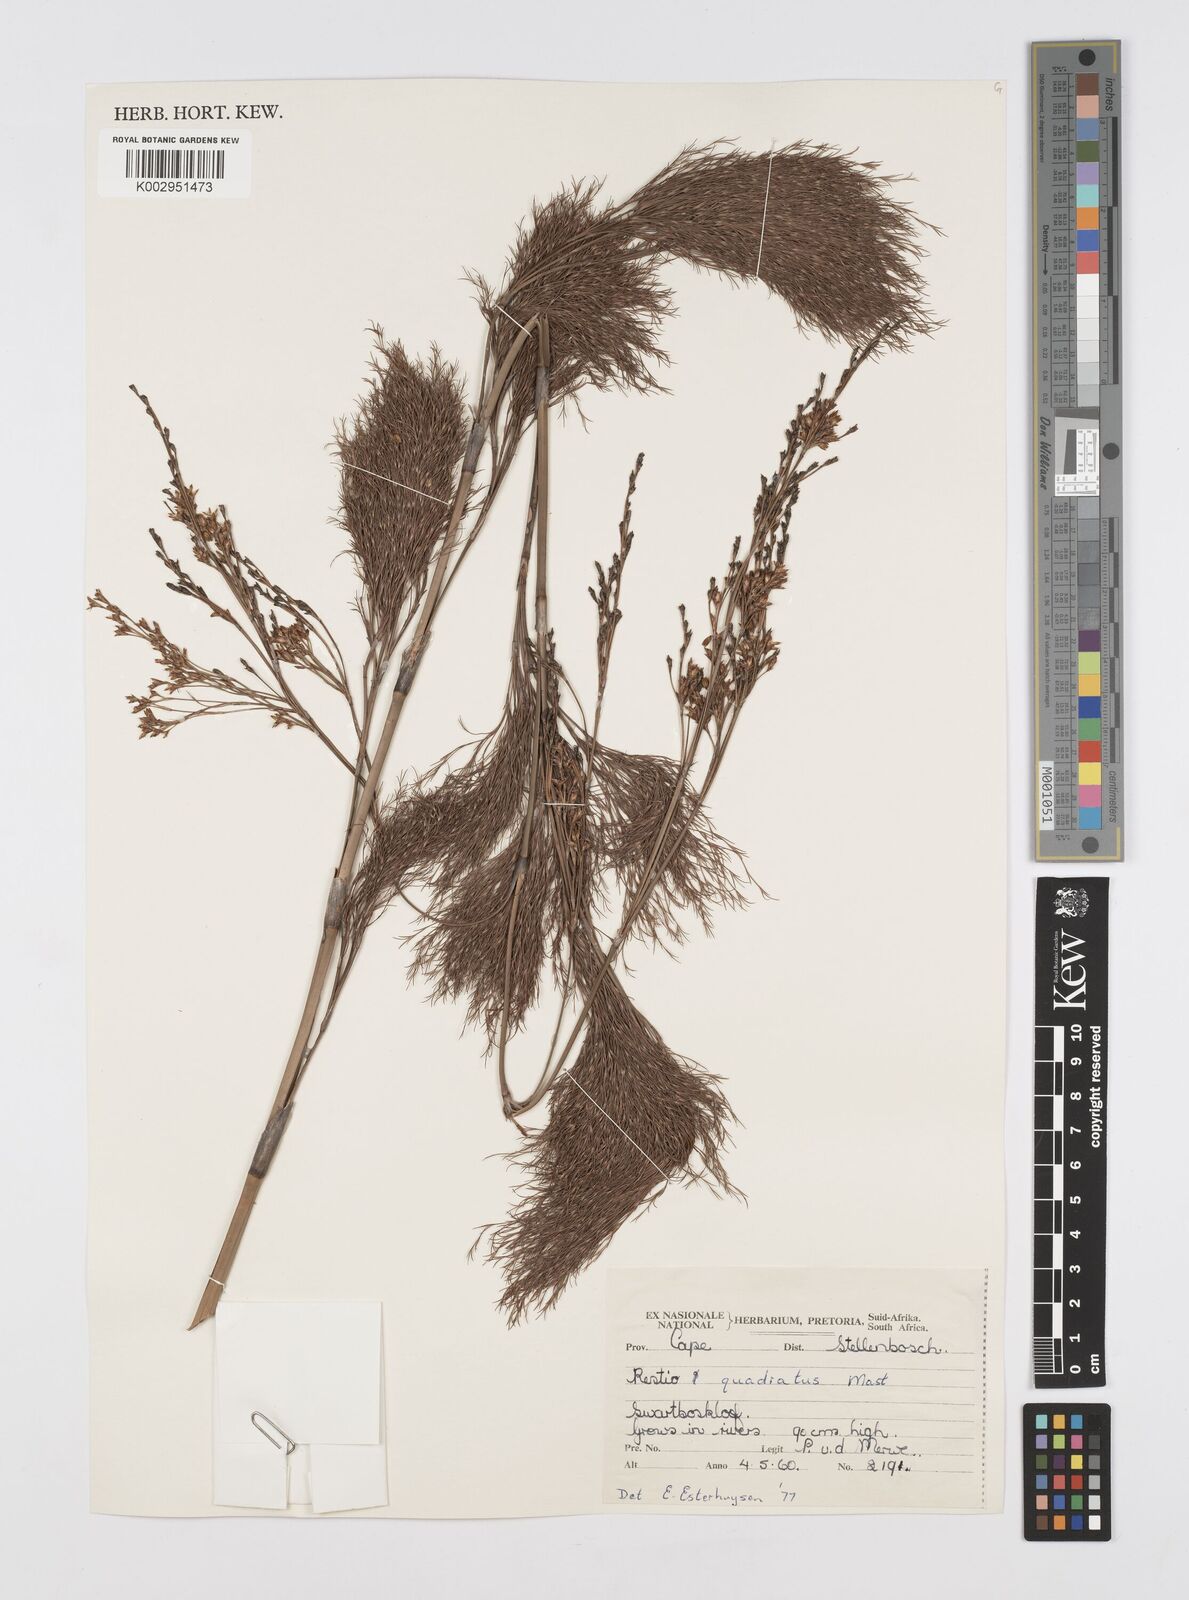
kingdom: Plantae
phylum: Tracheophyta
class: Liliopsida
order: Poales
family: Restionaceae
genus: Restio
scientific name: Restio quadratus
